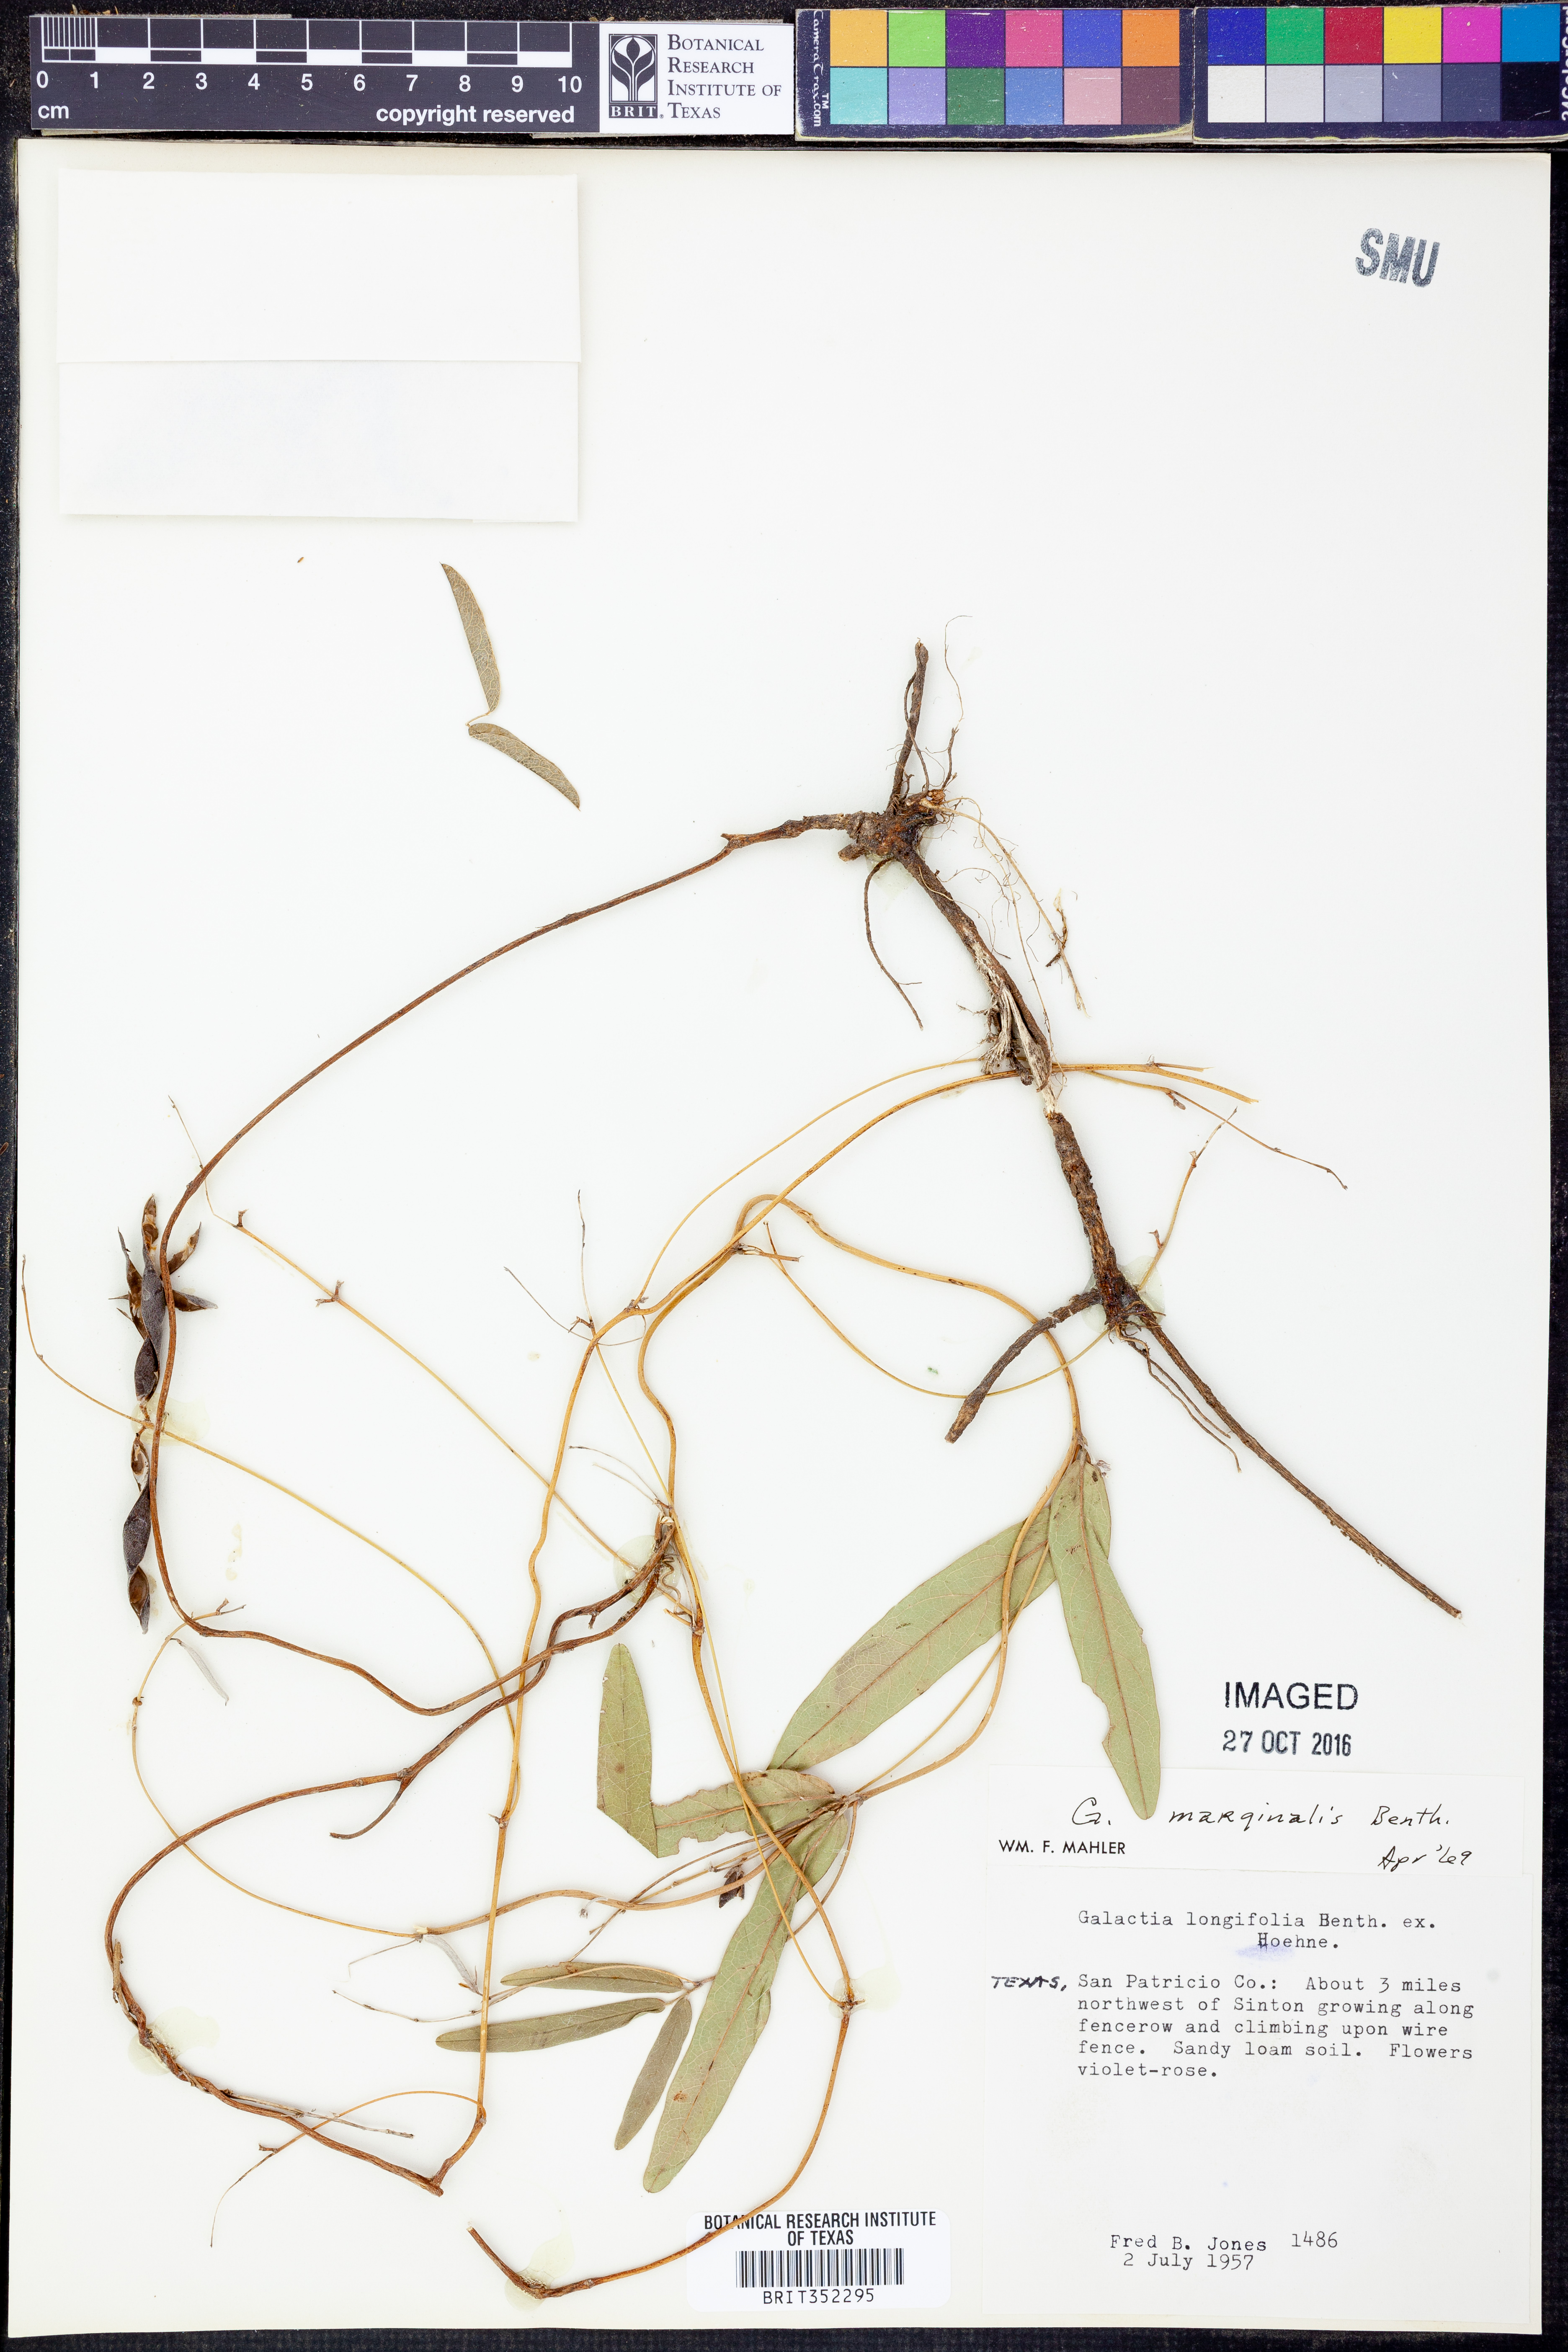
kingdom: Plantae
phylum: Tracheophyta
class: Magnoliopsida
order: Fabales
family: Fabaceae
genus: Nanogalactia
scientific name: Nanogalactia heterophylla
